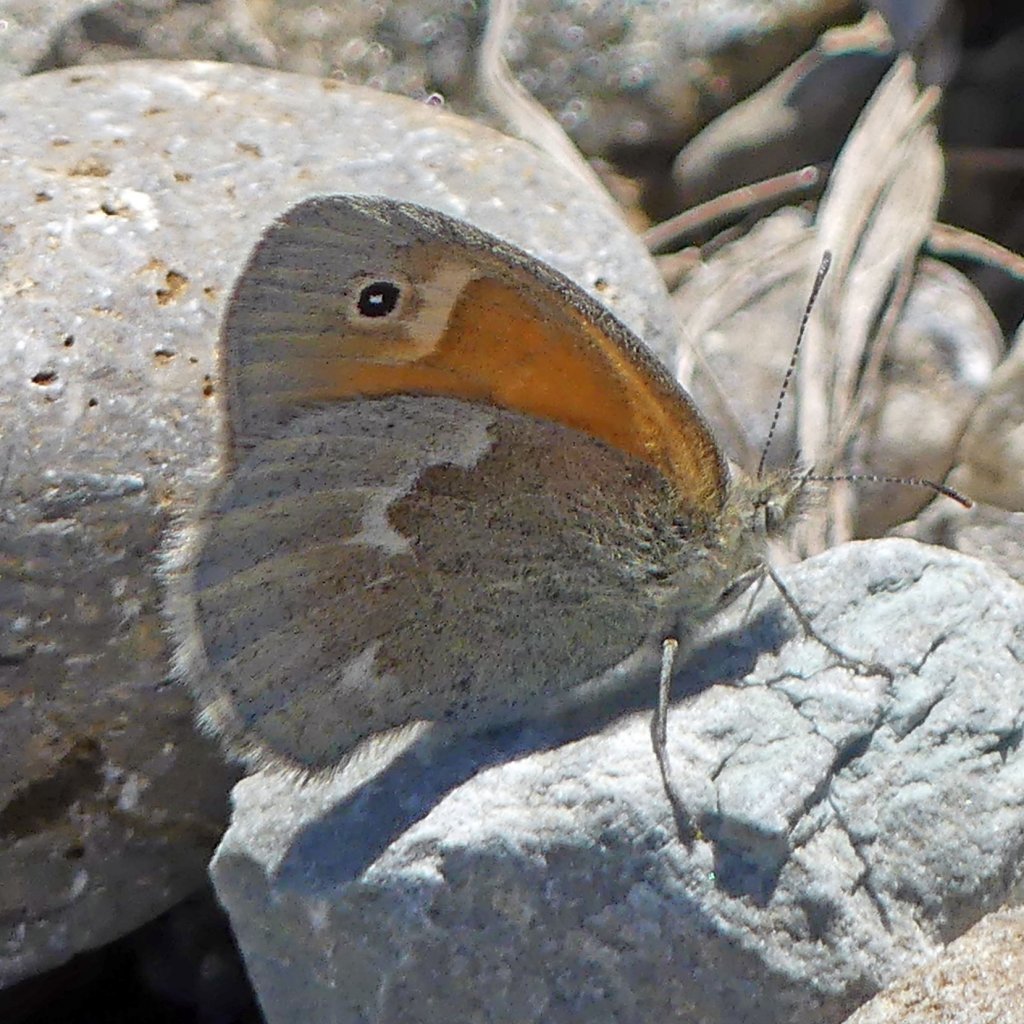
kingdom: Animalia
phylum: Arthropoda
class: Insecta
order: Lepidoptera
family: Nymphalidae
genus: Coenonympha
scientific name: Coenonympha tullia
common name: Large Heath
